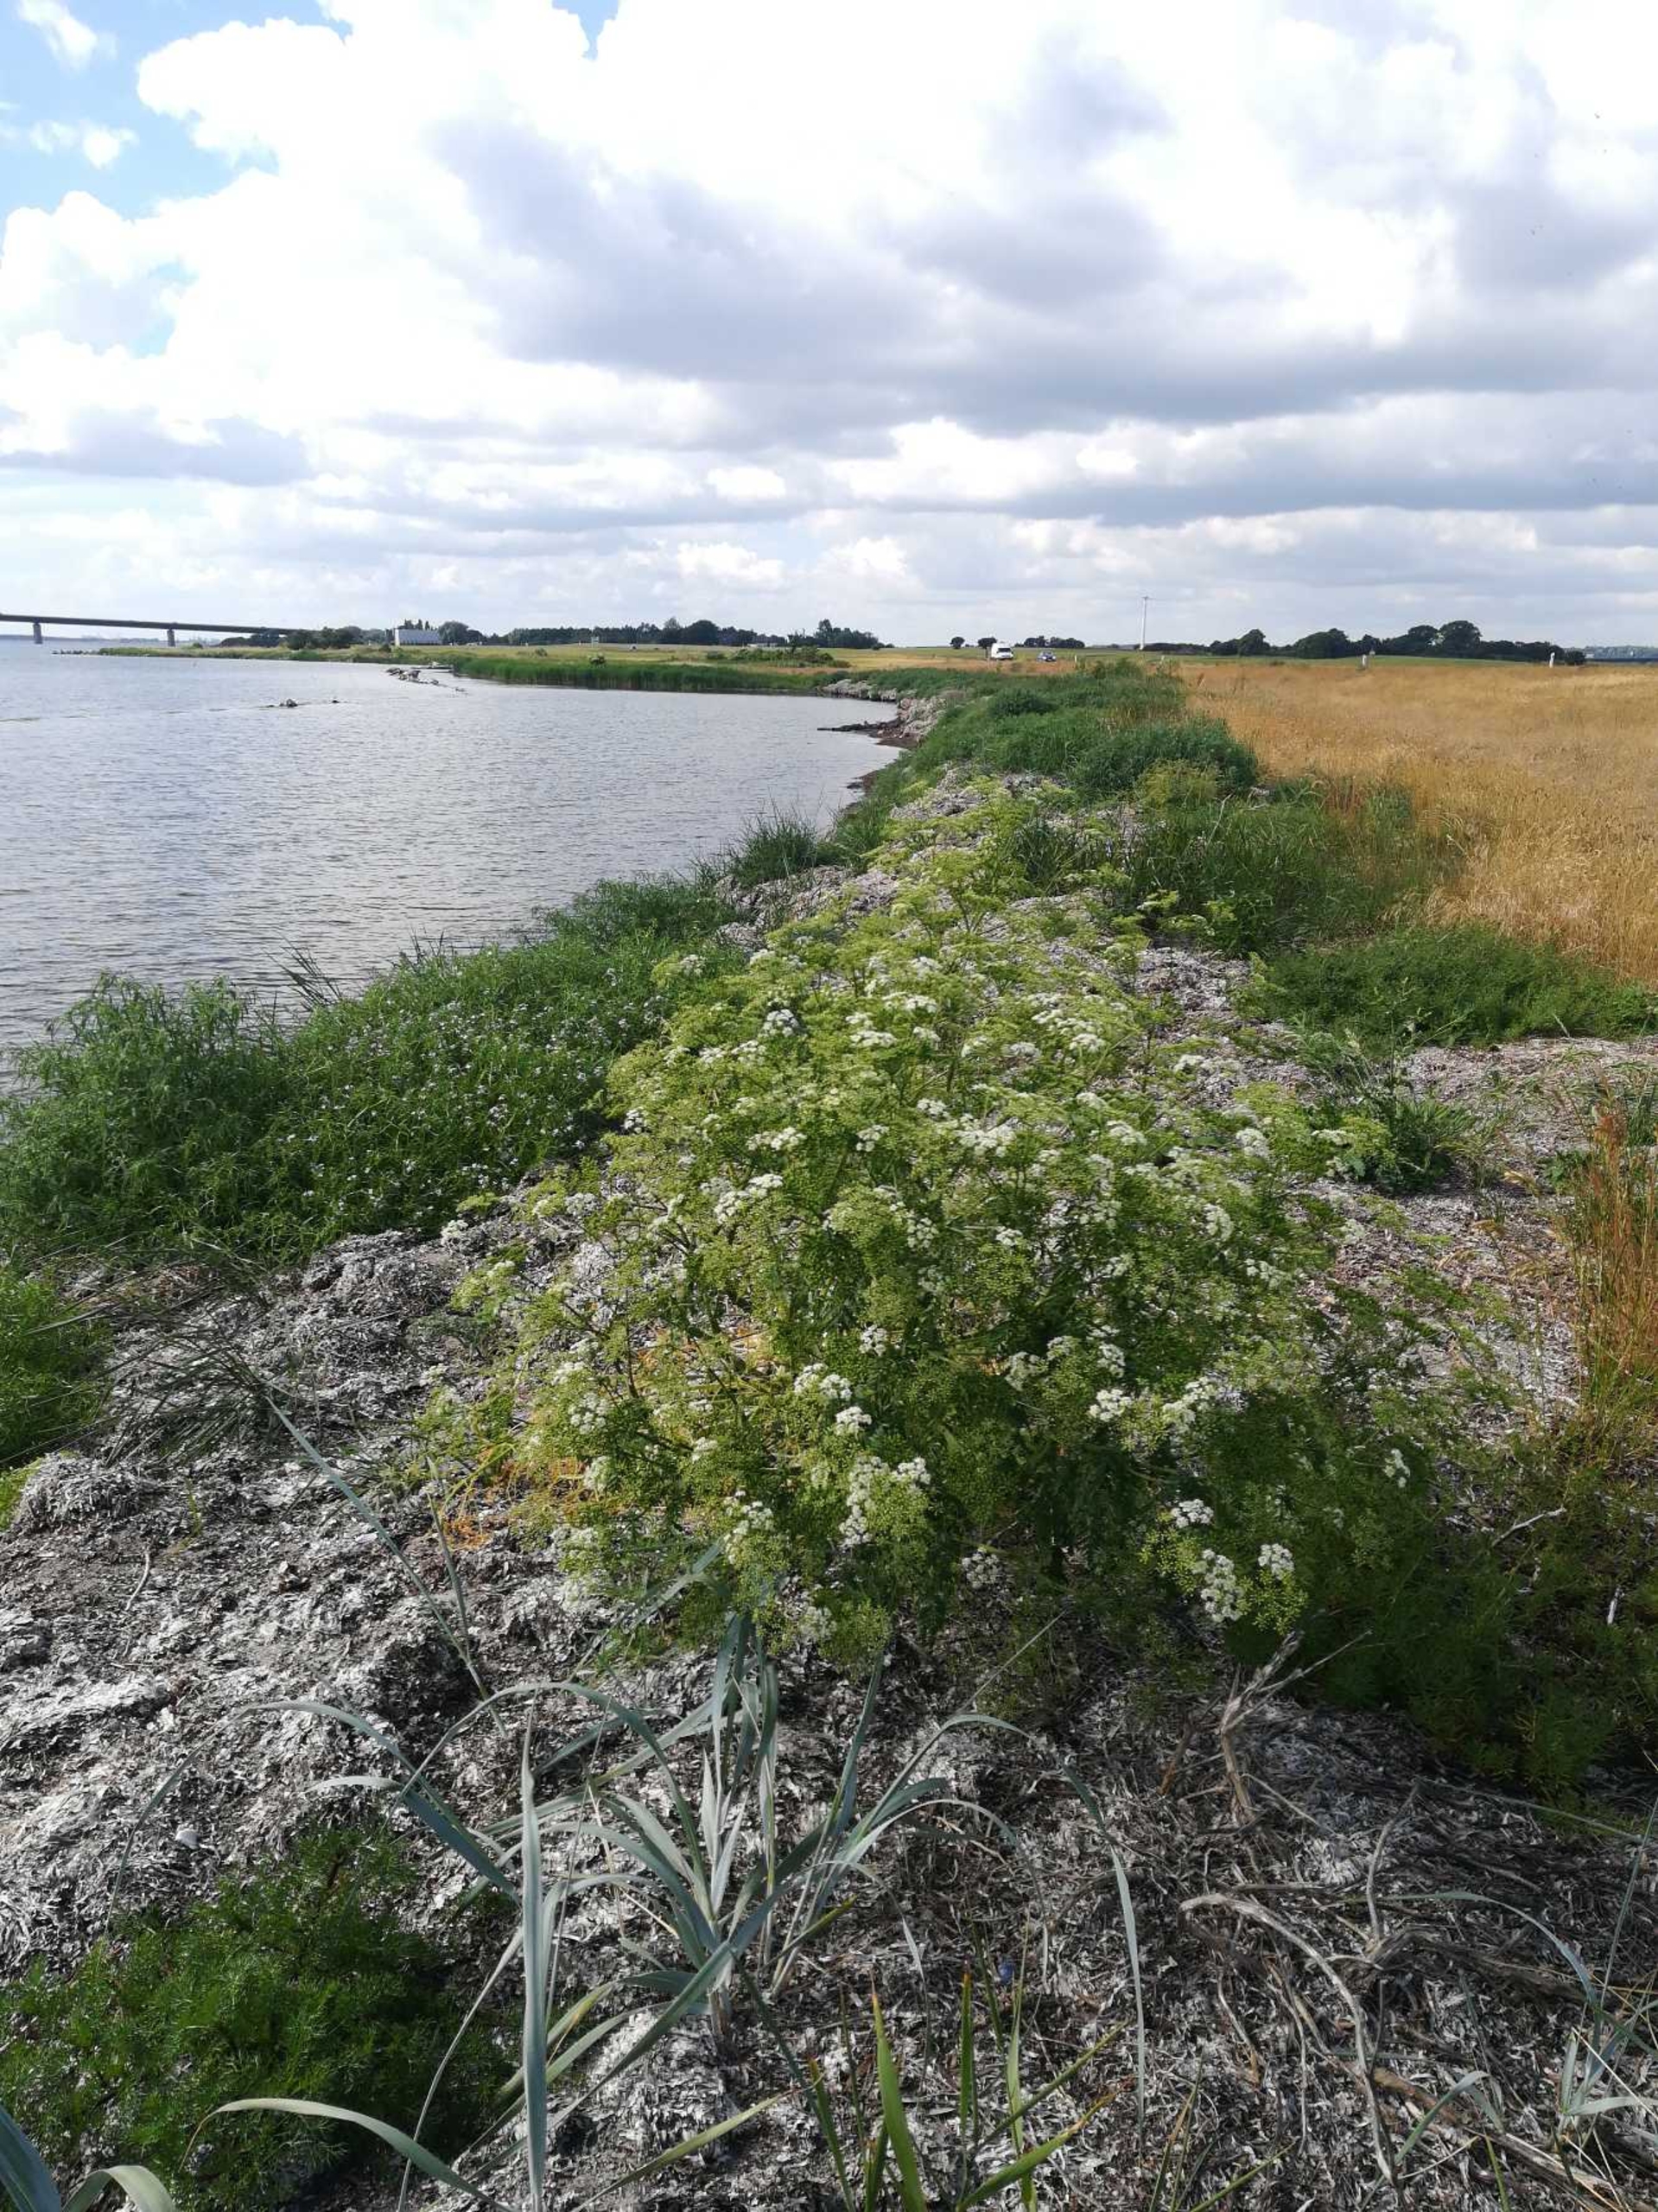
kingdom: Plantae
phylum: Tracheophyta
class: Magnoliopsida
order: Apiales
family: Apiaceae
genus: Conium
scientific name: Conium maculatum
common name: Skarntyde
